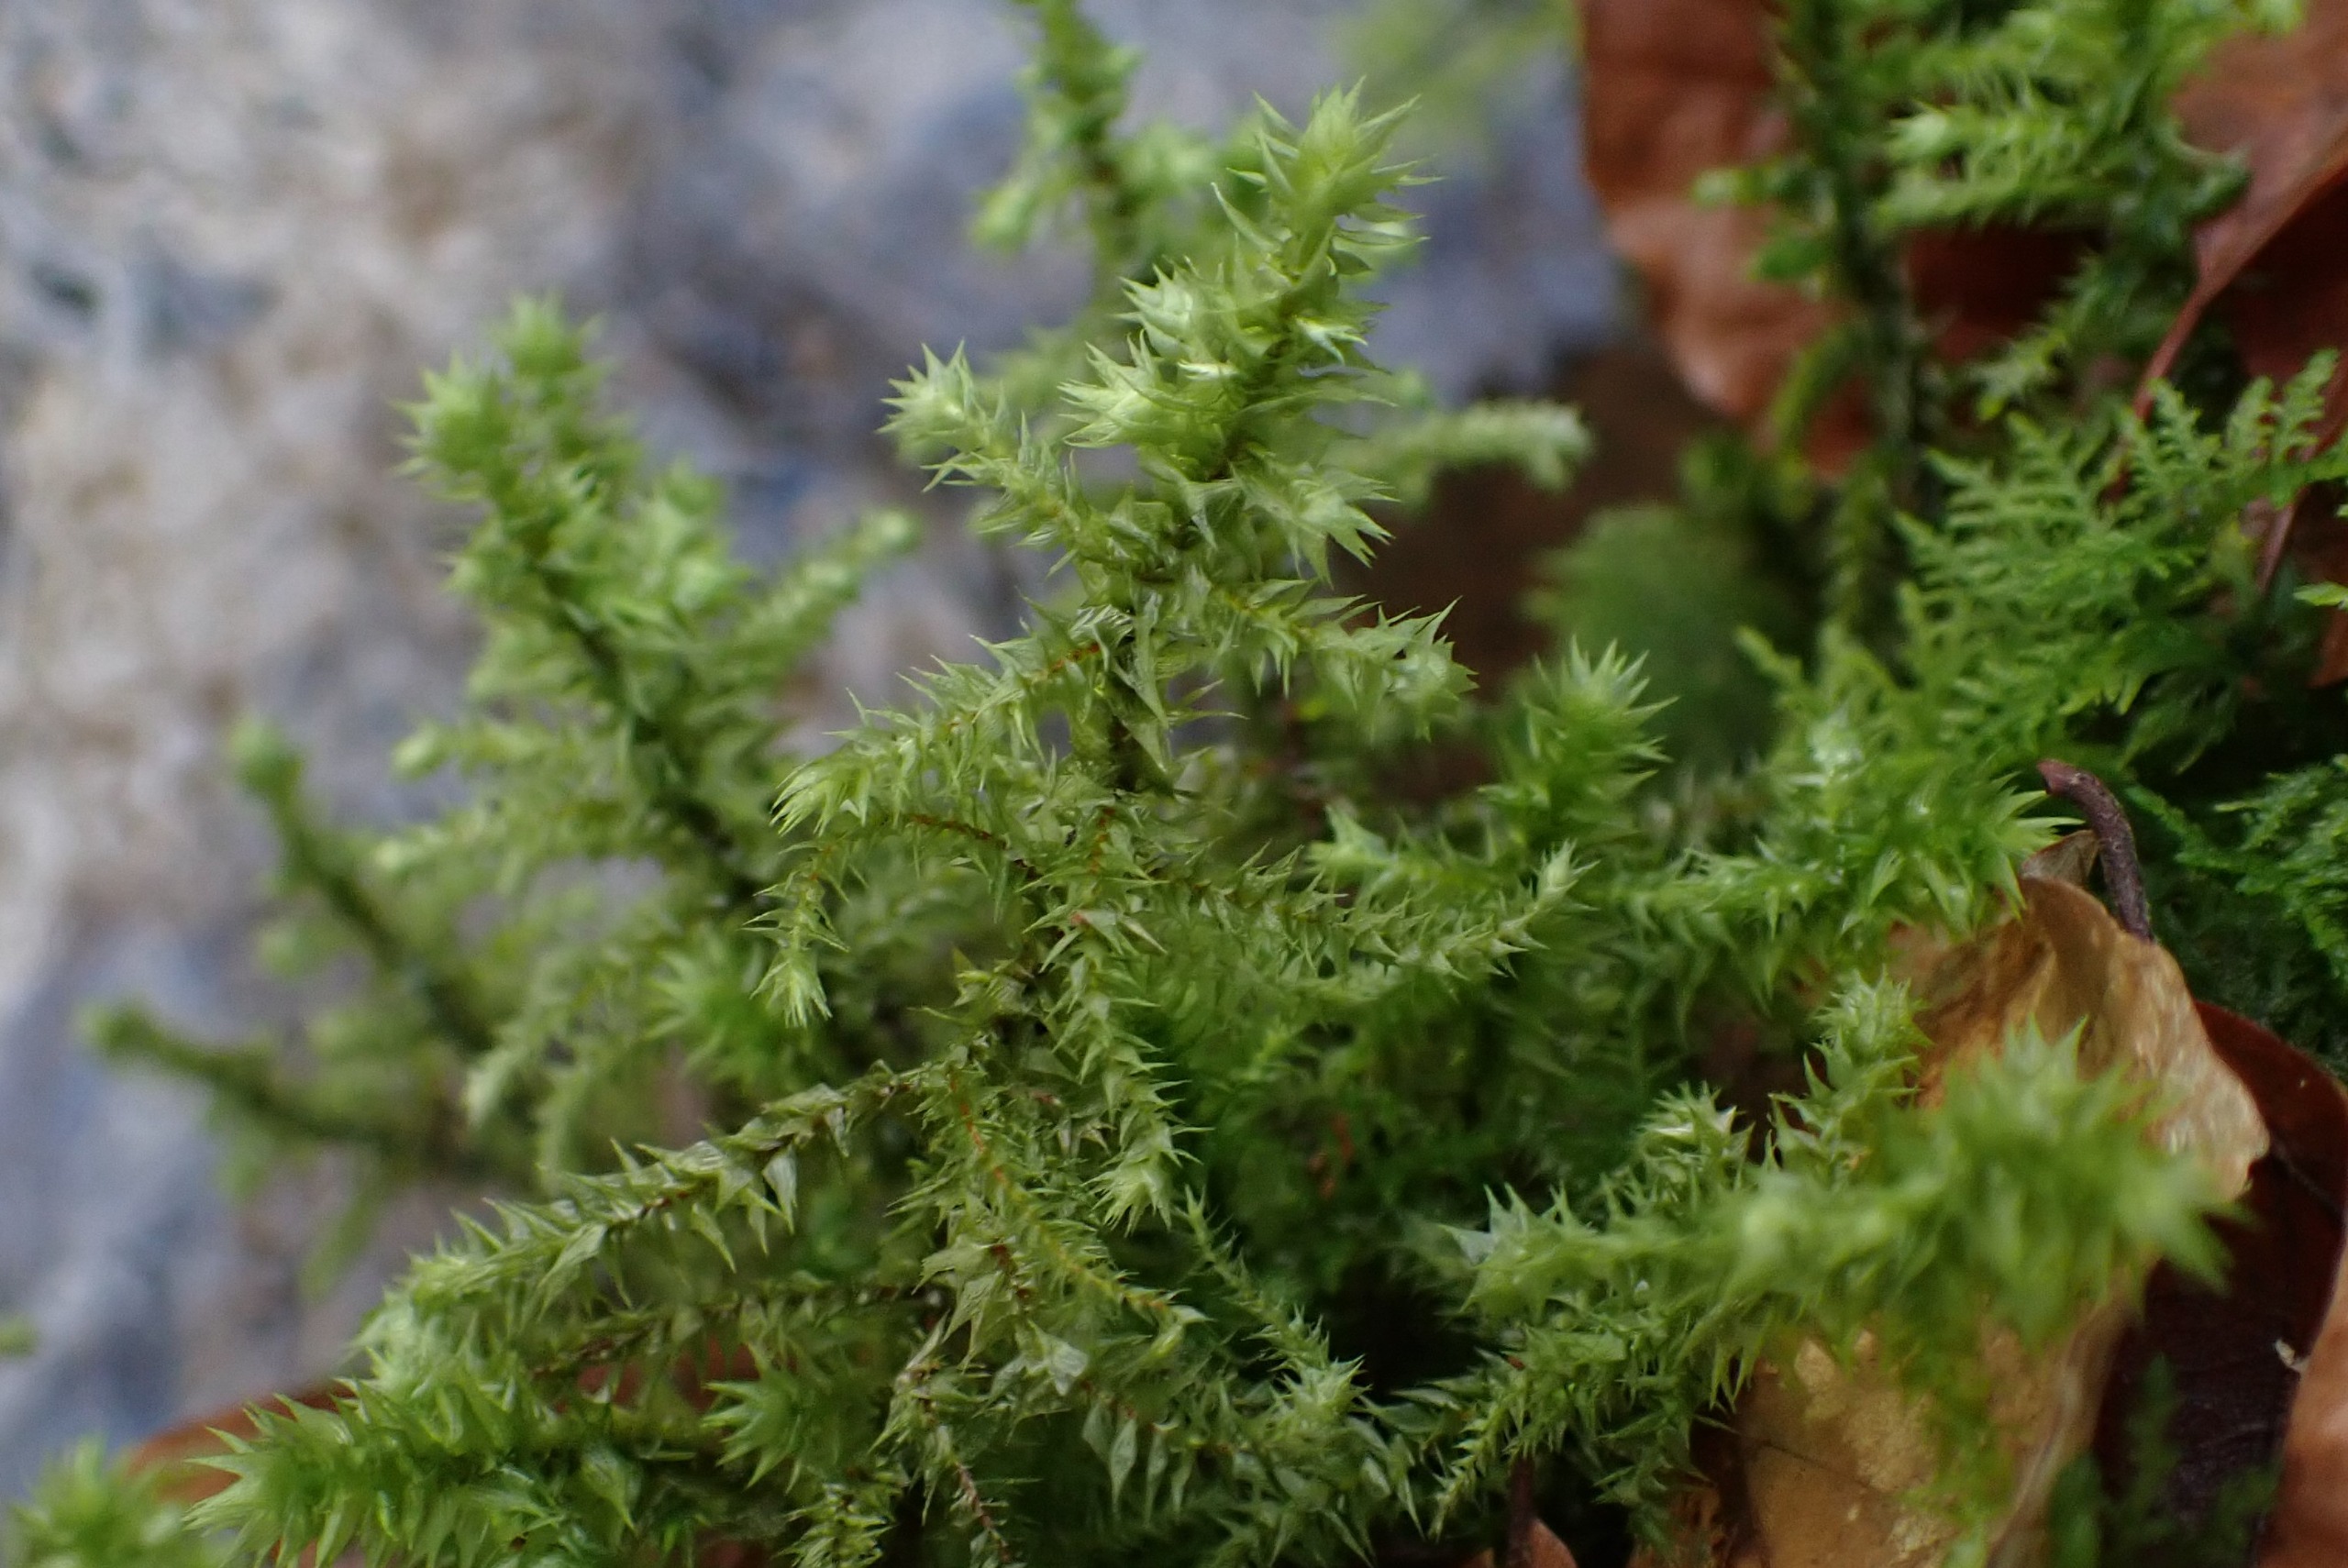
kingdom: Plantae
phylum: Bryophyta
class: Bryopsida
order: Hypnales
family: Hylocomiaceae
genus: Hylocomiadelphus
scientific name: Hylocomiadelphus triquetrus
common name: Stor kransemos
